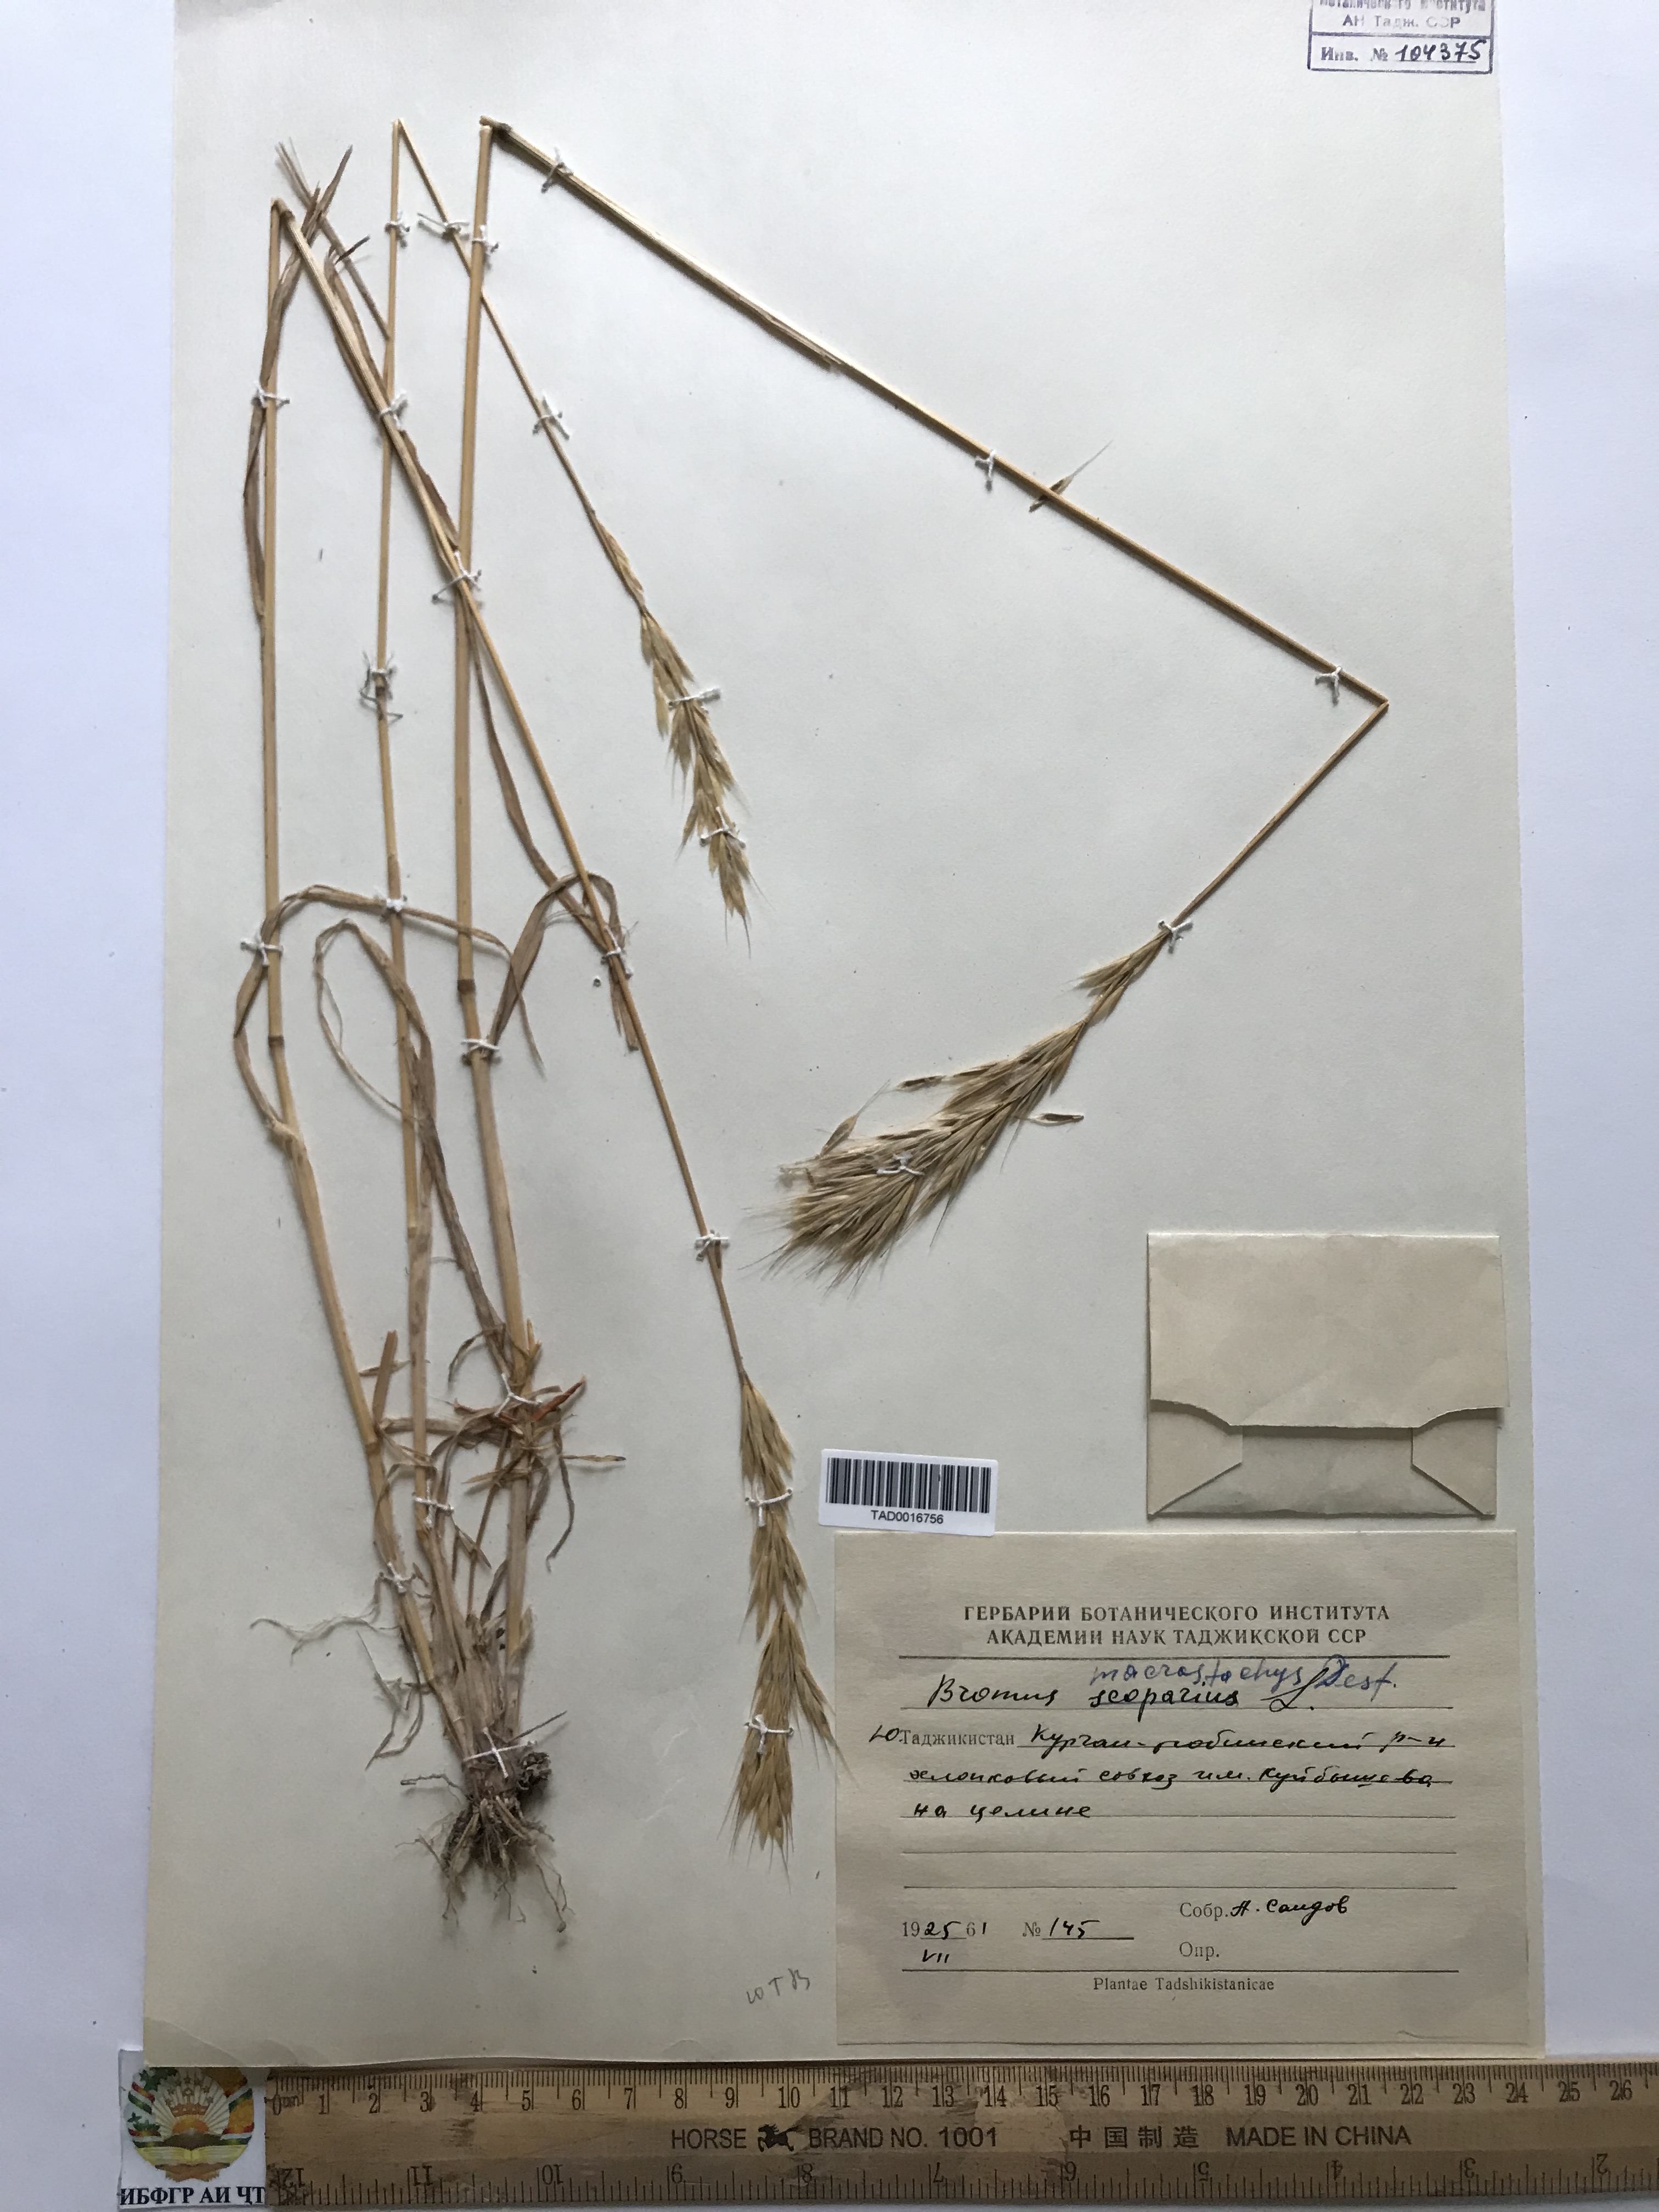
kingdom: Plantae
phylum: Tracheophyta
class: Liliopsida
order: Poales
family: Poaceae
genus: Bromus
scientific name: Bromus lanceolatus
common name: Mediterranean brome
